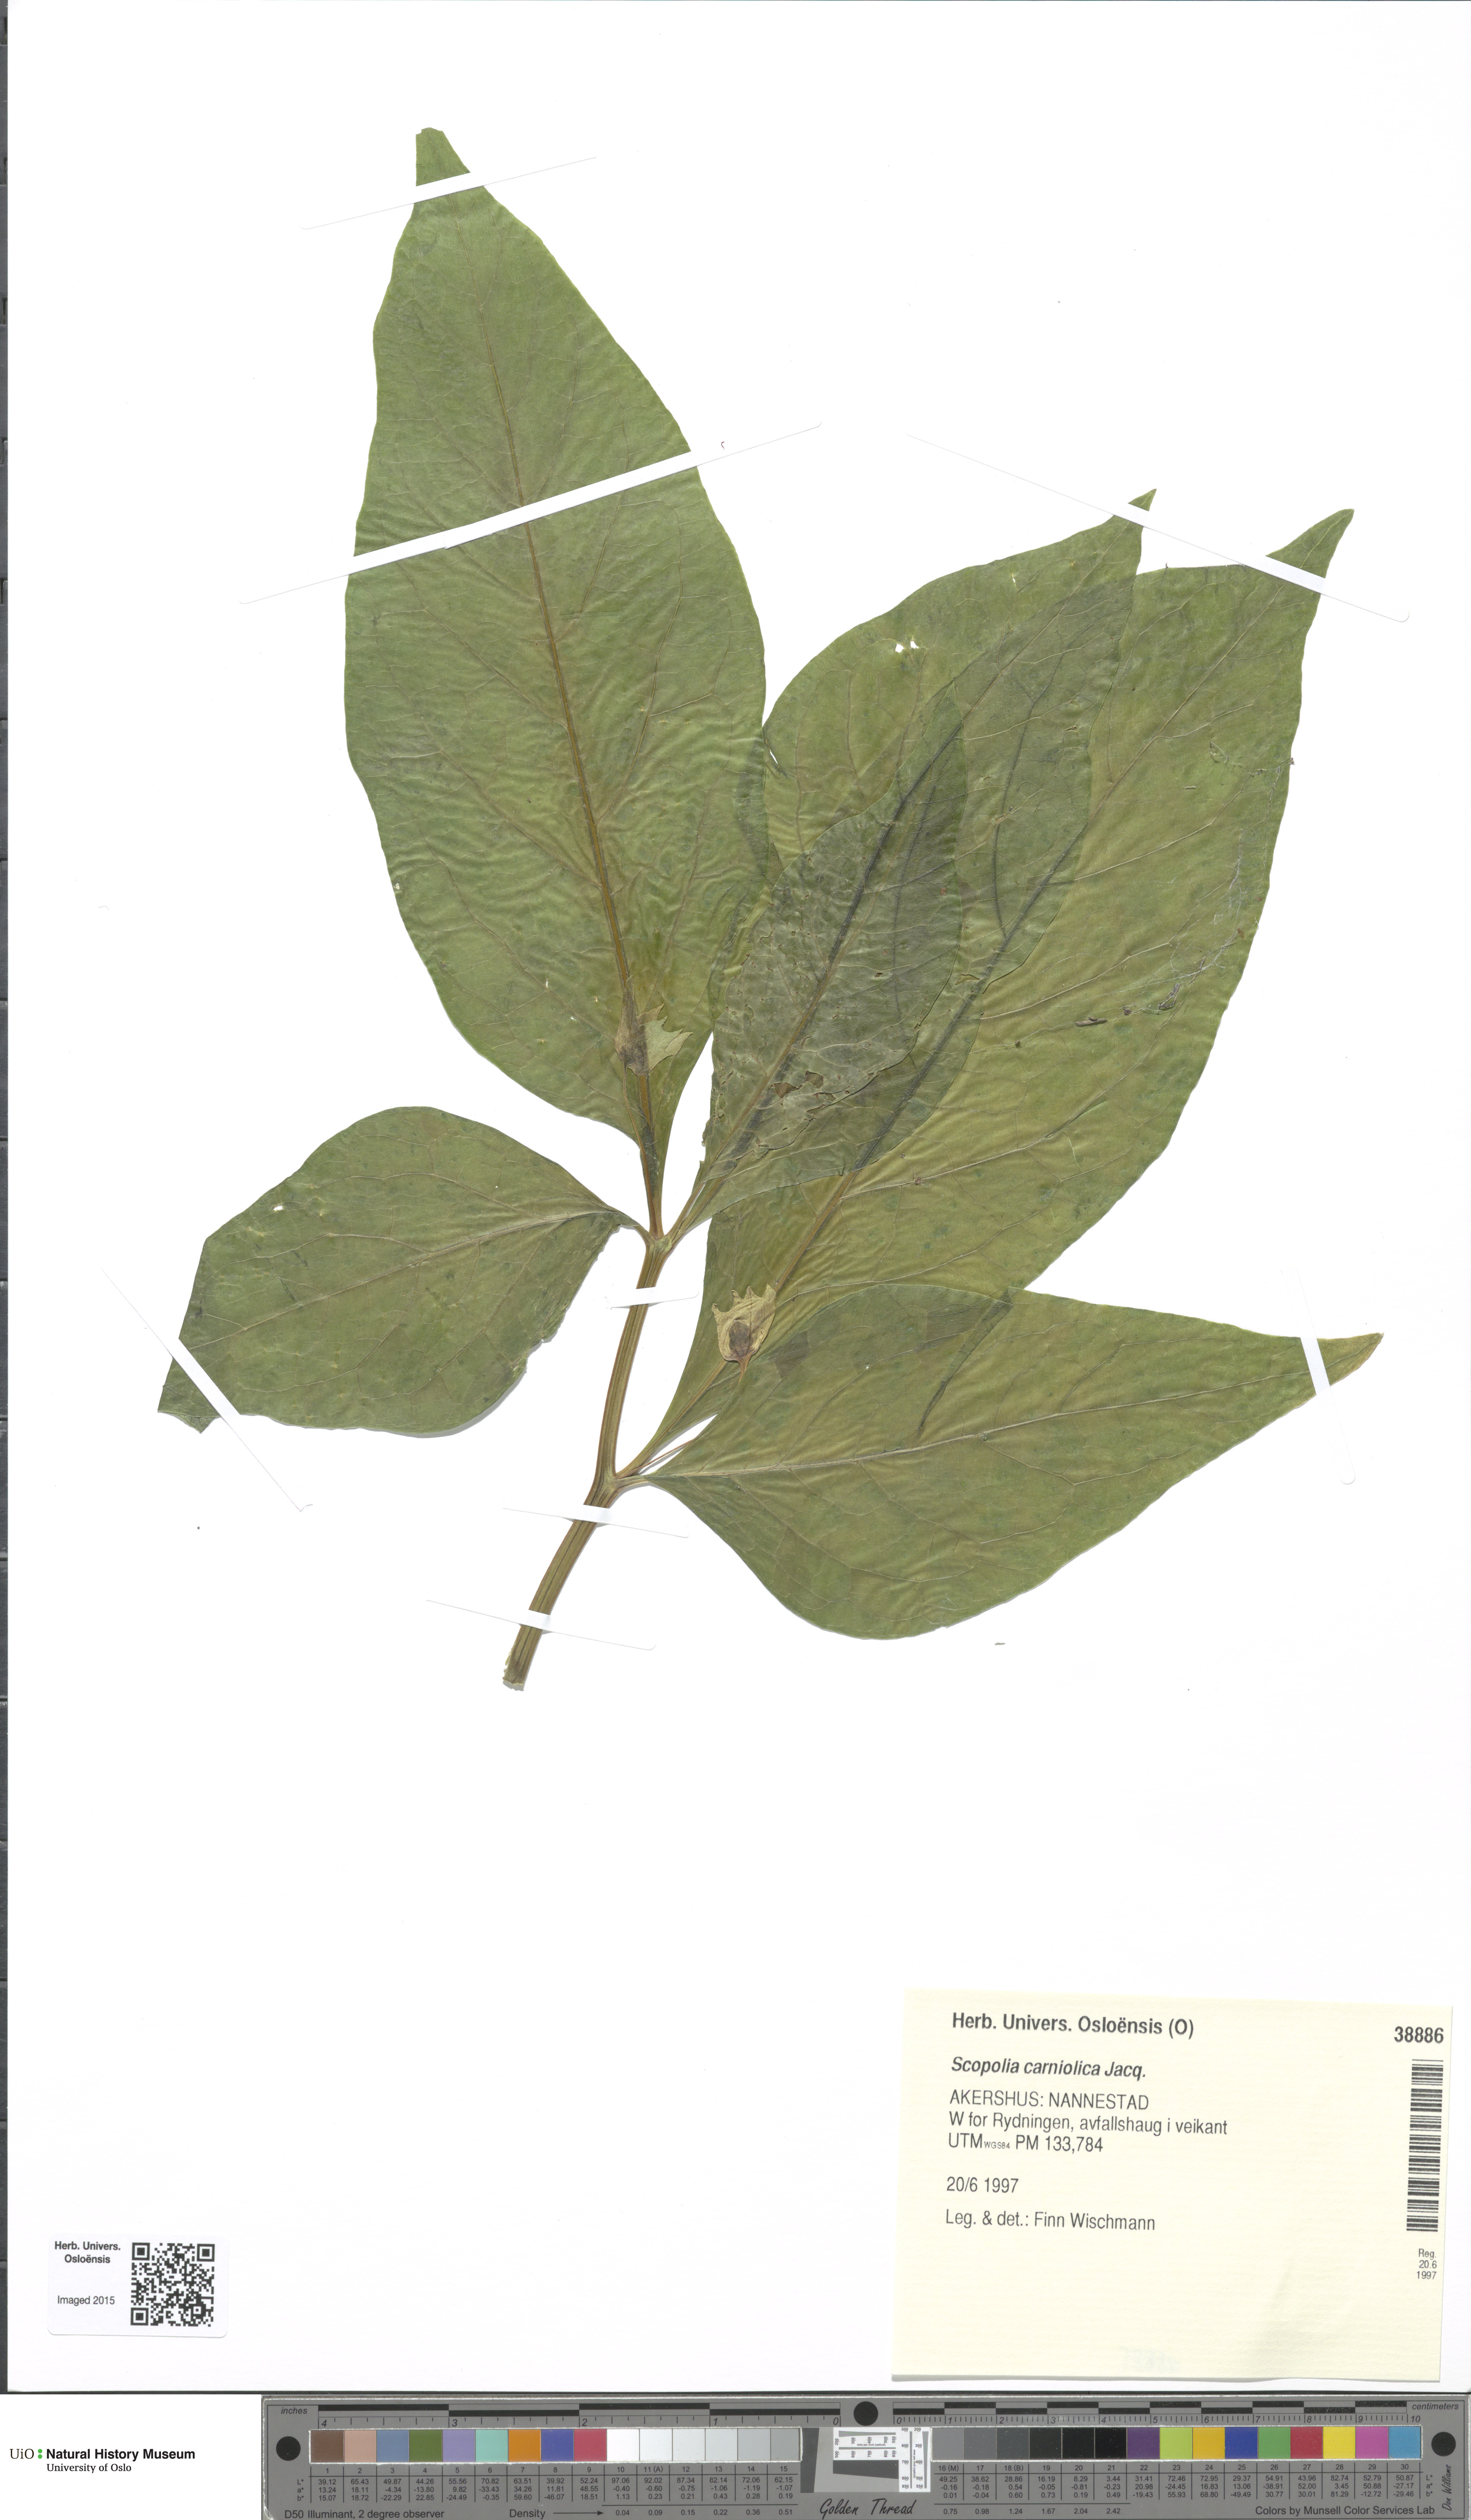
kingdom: Plantae
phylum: Tracheophyta
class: Magnoliopsida
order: Solanales
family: Solanaceae
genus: Scopolia
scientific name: Scopolia carniolica
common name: Scopolia
